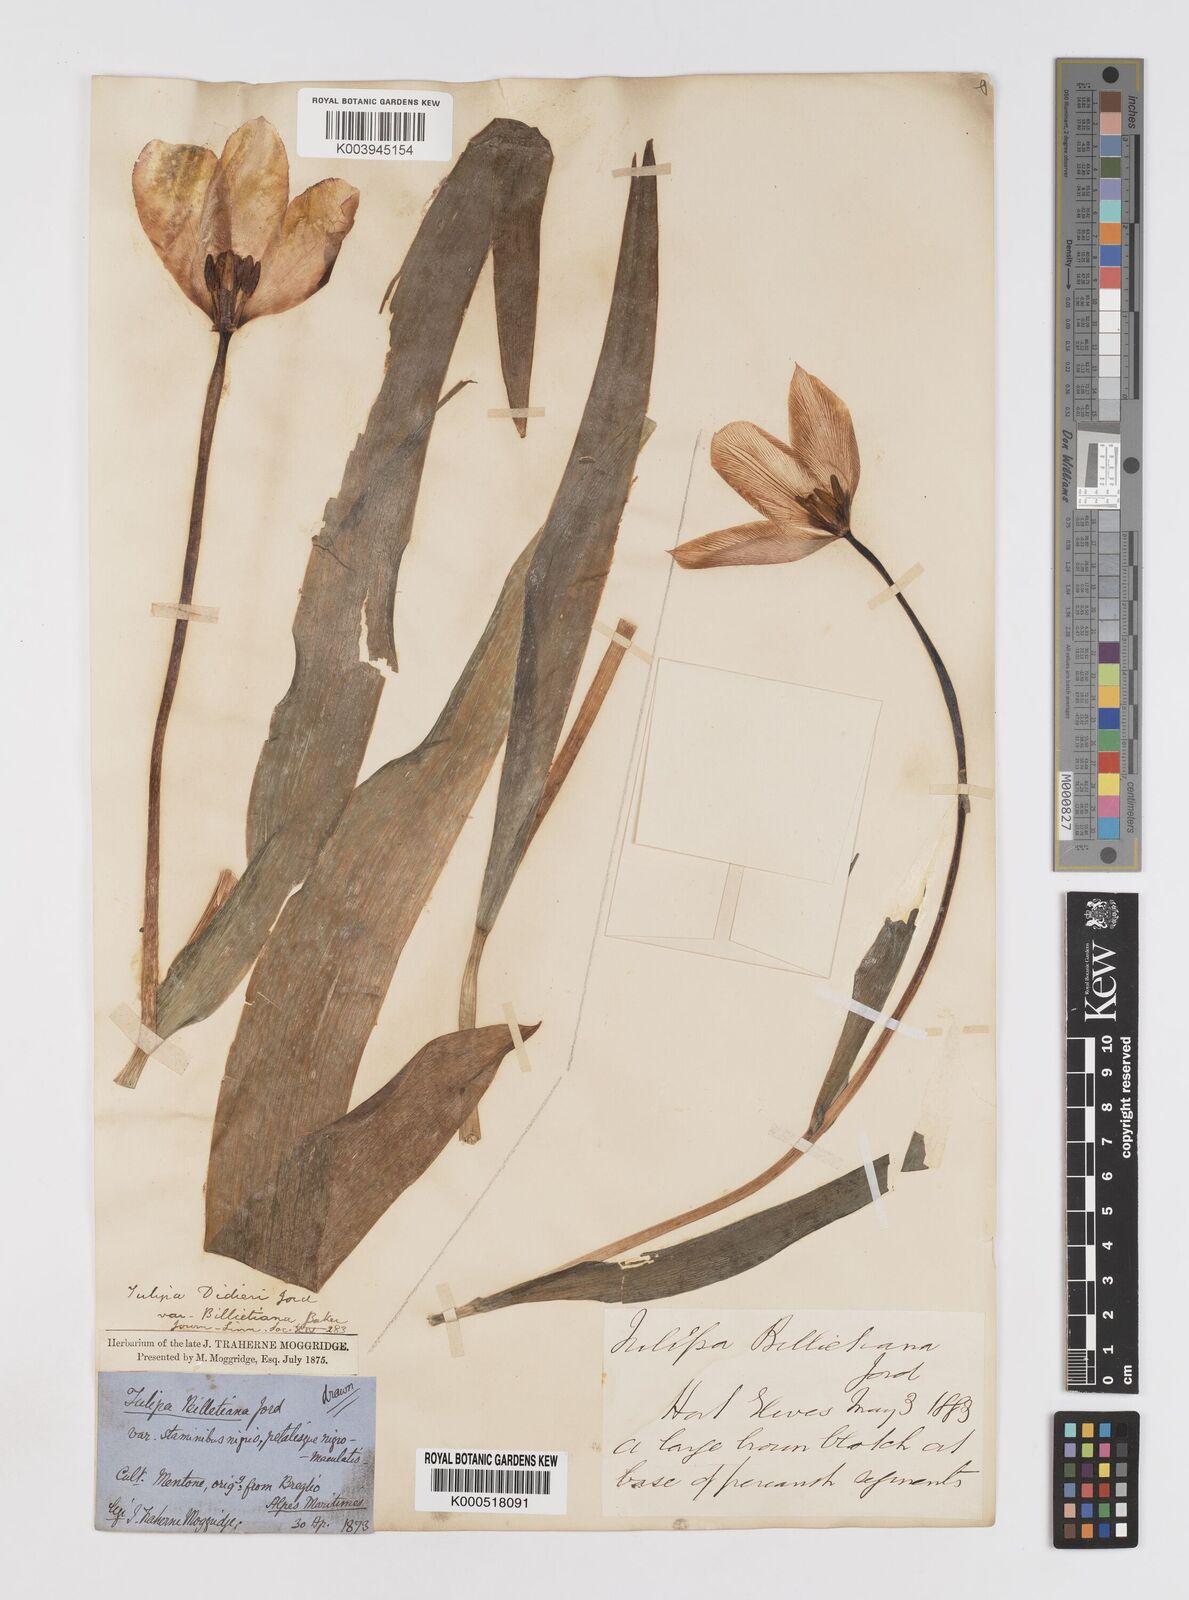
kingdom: Plantae
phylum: Tracheophyta
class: Liliopsida
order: Liliales
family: Liliaceae
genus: Tulipa
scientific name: Tulipa gesneriana
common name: Garden tulip
